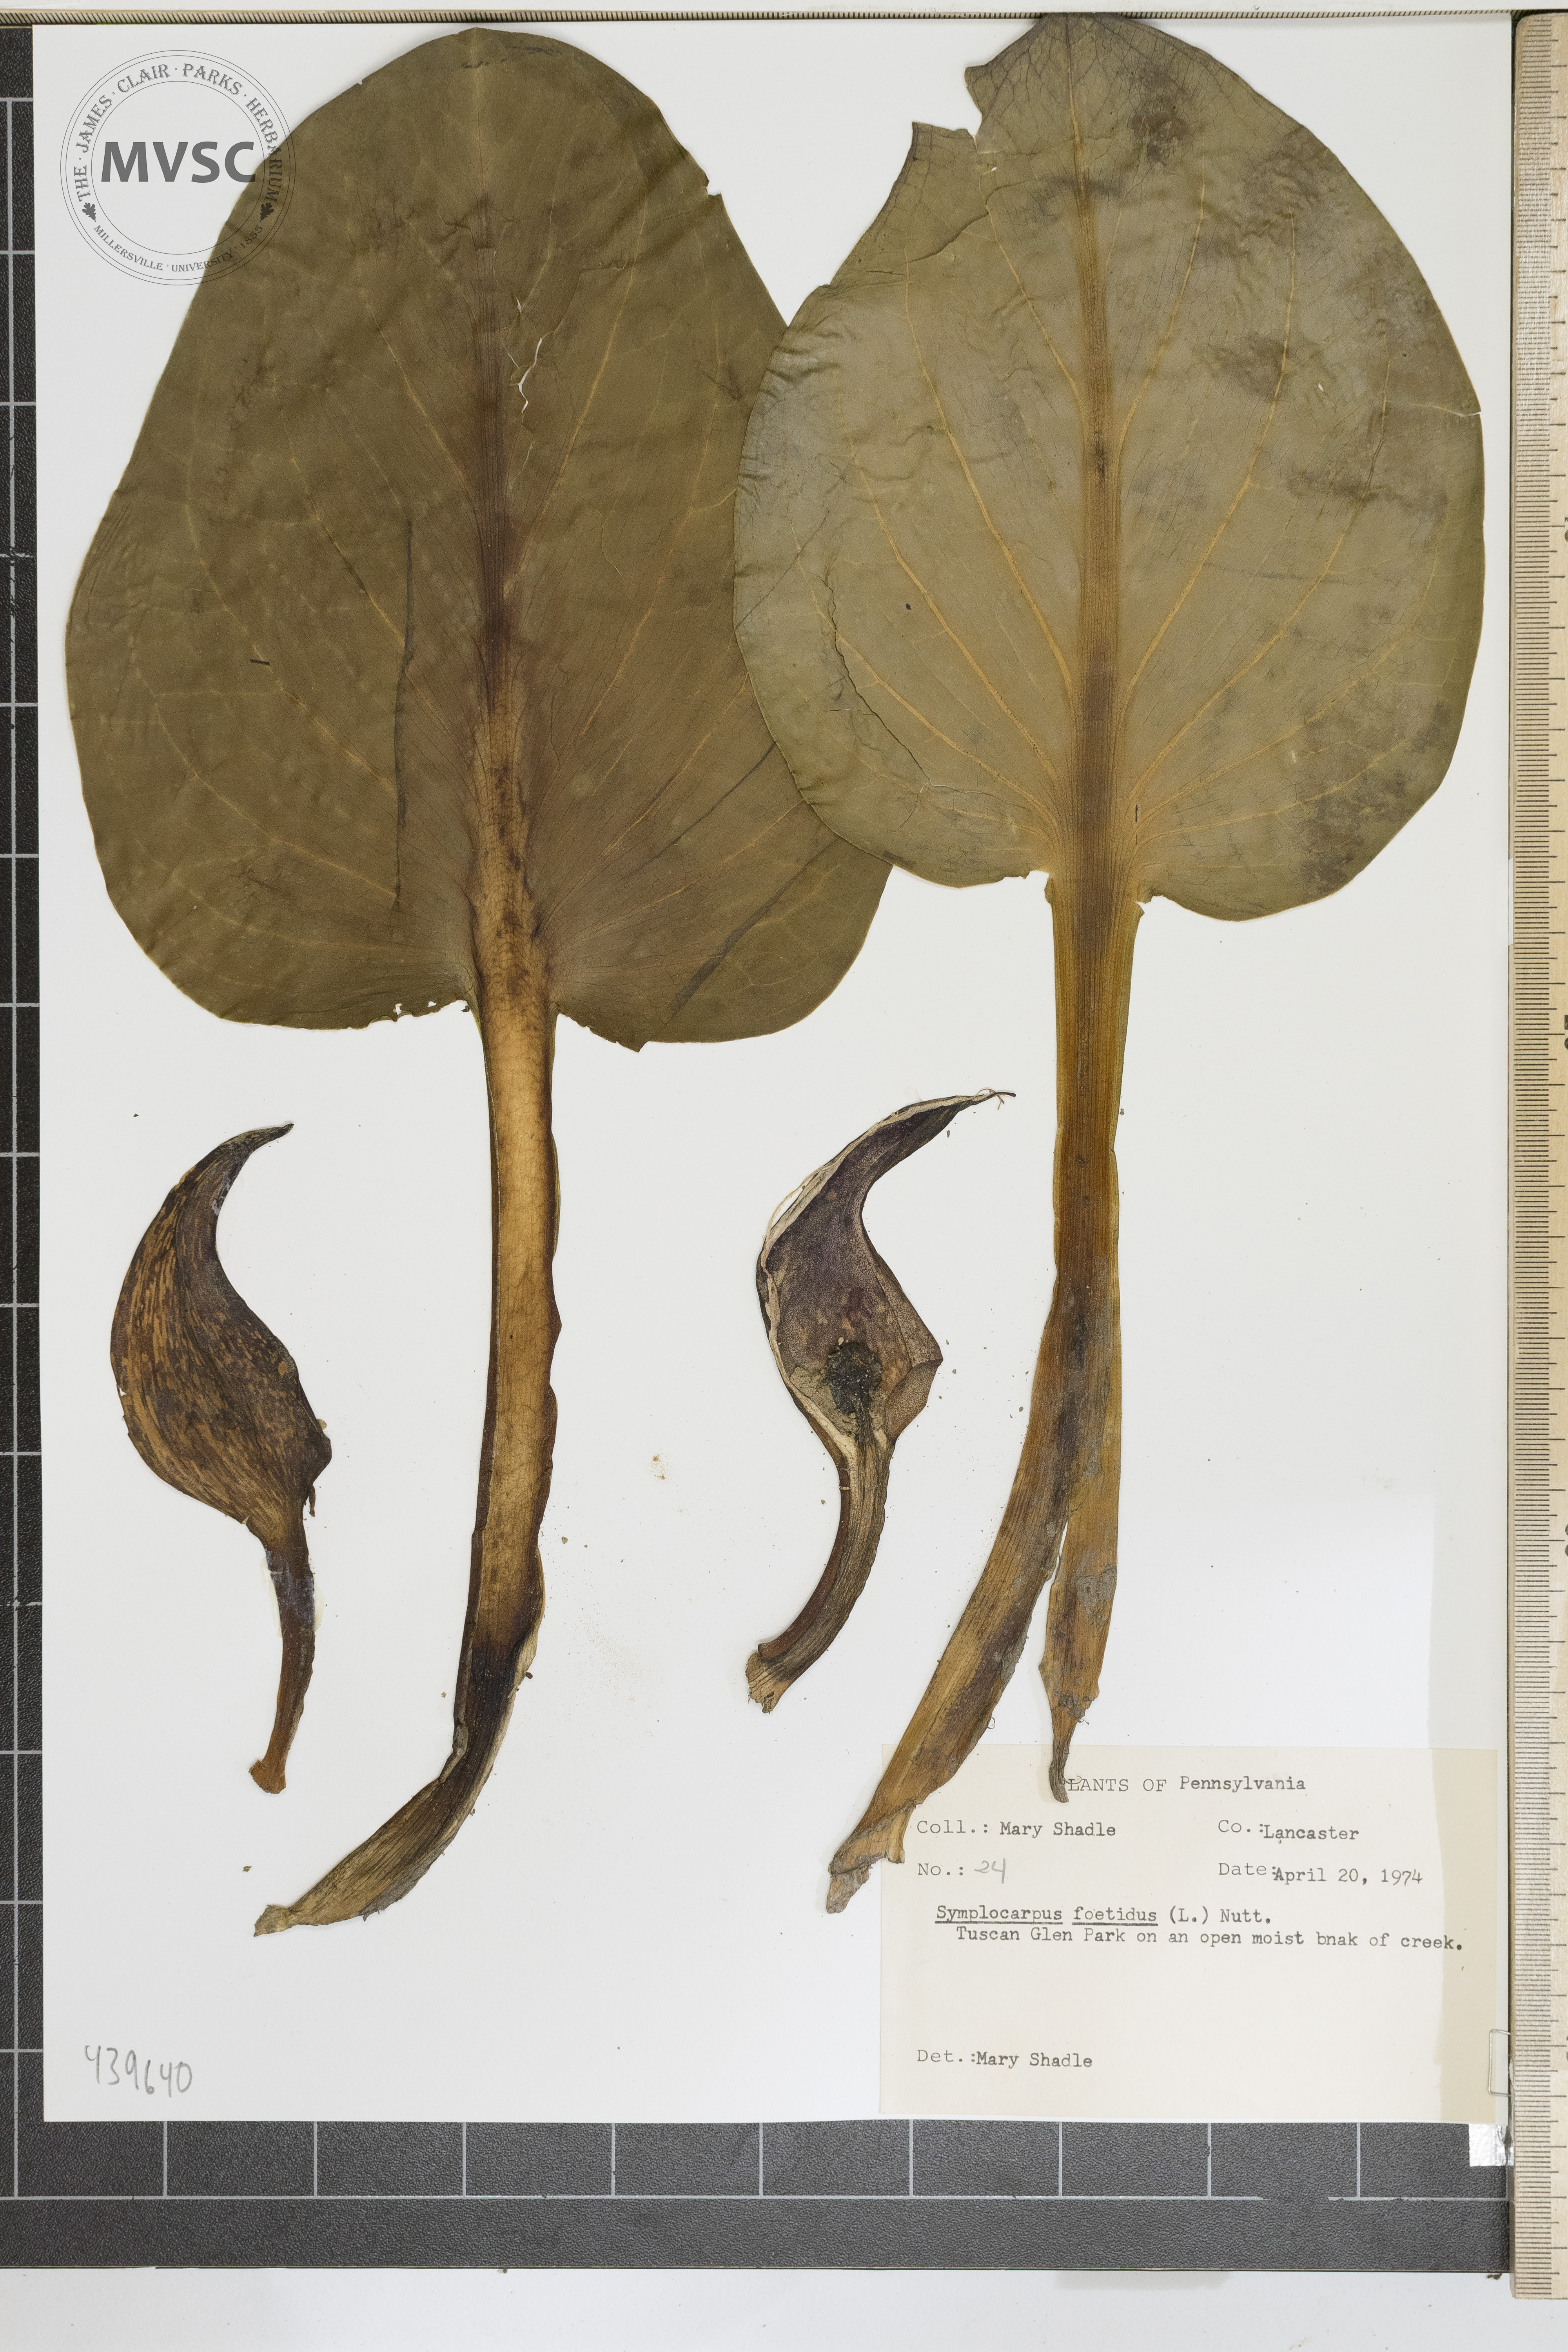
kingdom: Plantae
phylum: Tracheophyta
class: Liliopsida
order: Alismatales
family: Araceae
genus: Symplocarpus
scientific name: Symplocarpus foetidus
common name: Eastern skunk cabbage
